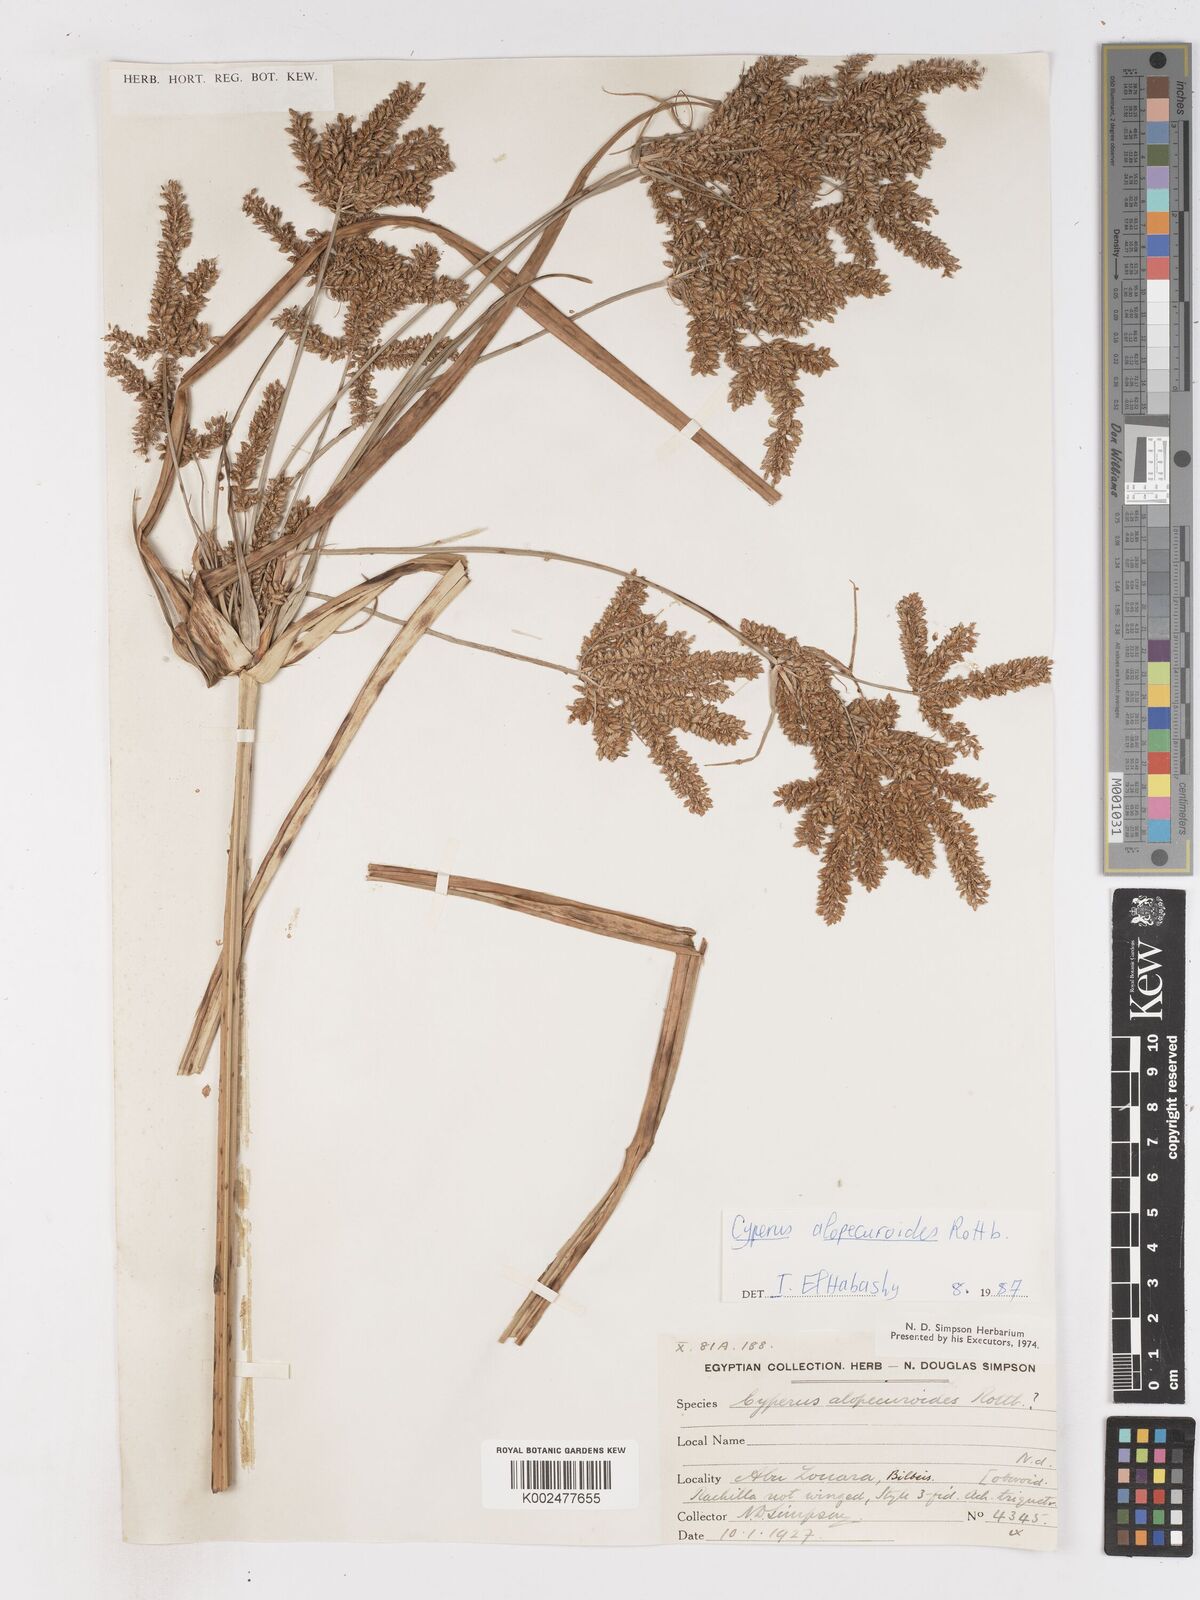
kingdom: Plantae
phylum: Tracheophyta
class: Liliopsida
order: Poales
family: Cyperaceae
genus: Cyperus
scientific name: Cyperus alopecuroides
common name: Foxtail flatsedge
